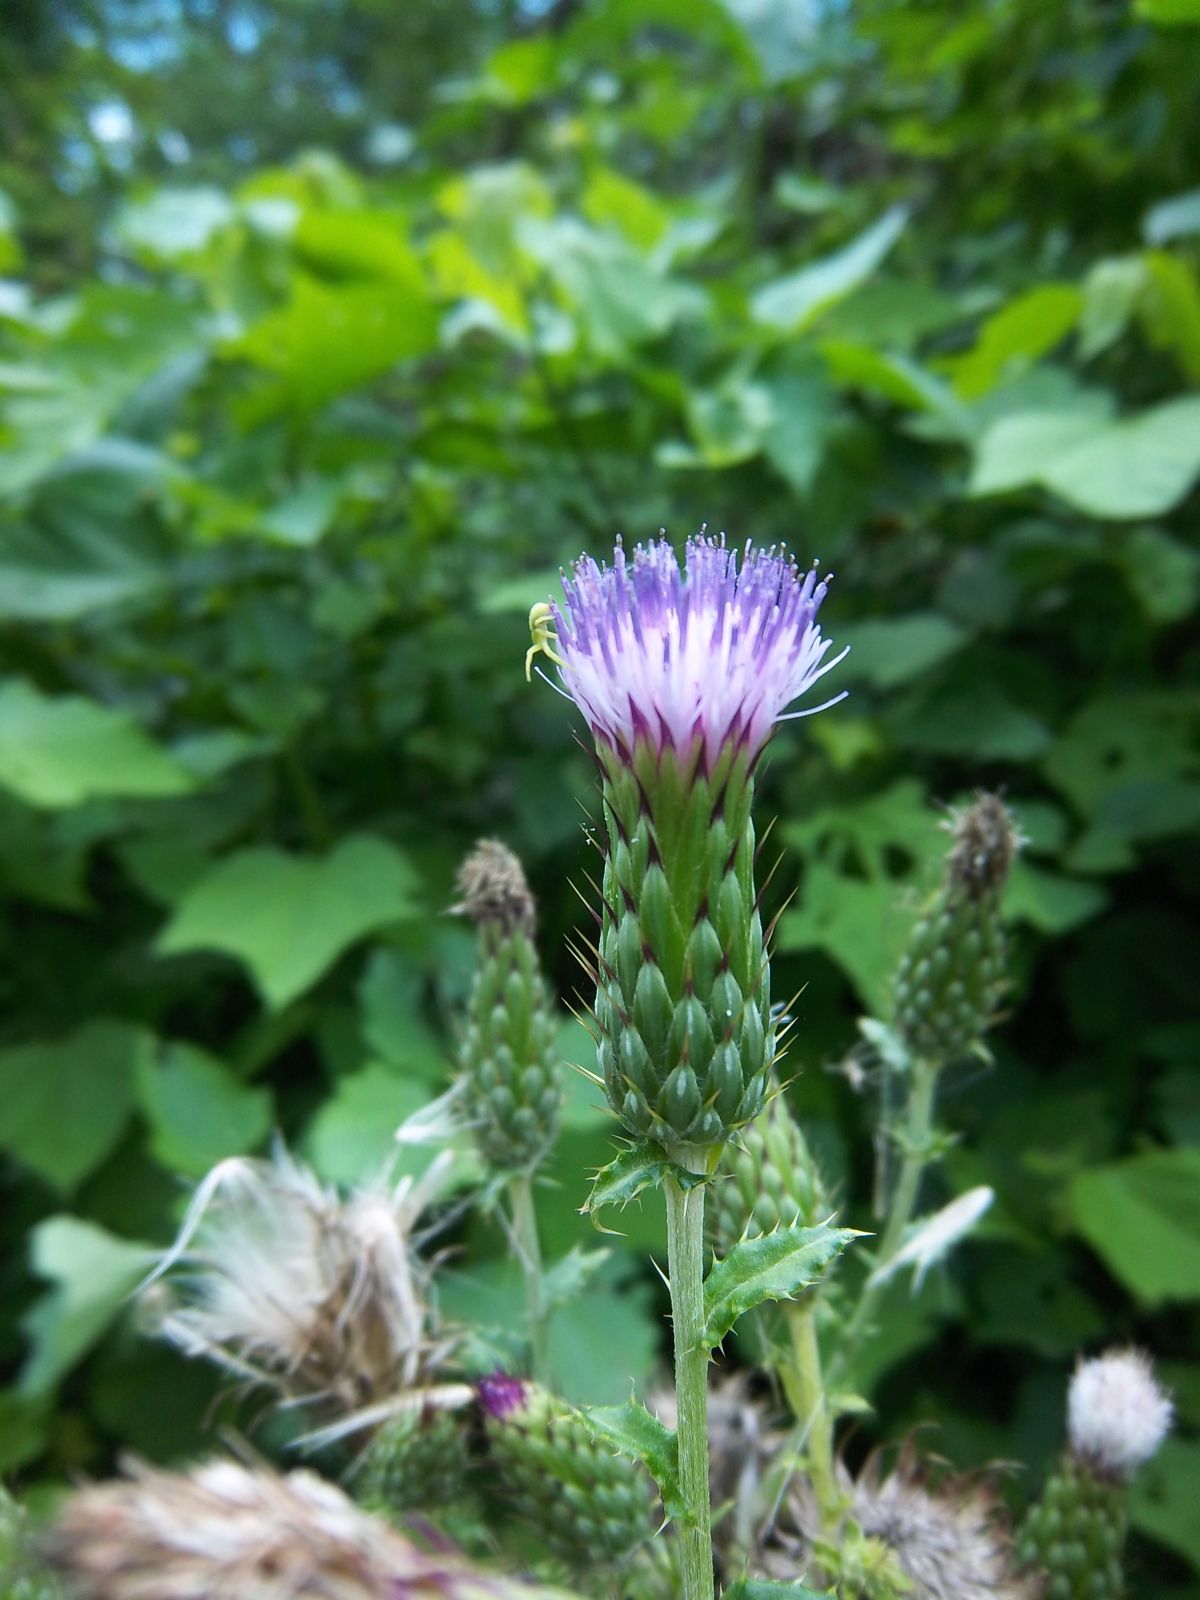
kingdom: Plantae
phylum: Tracheophyta
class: Magnoliopsida
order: Asterales
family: Asteraceae
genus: Cirsium
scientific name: Cirsium mexicanum
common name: Mexican thistle
